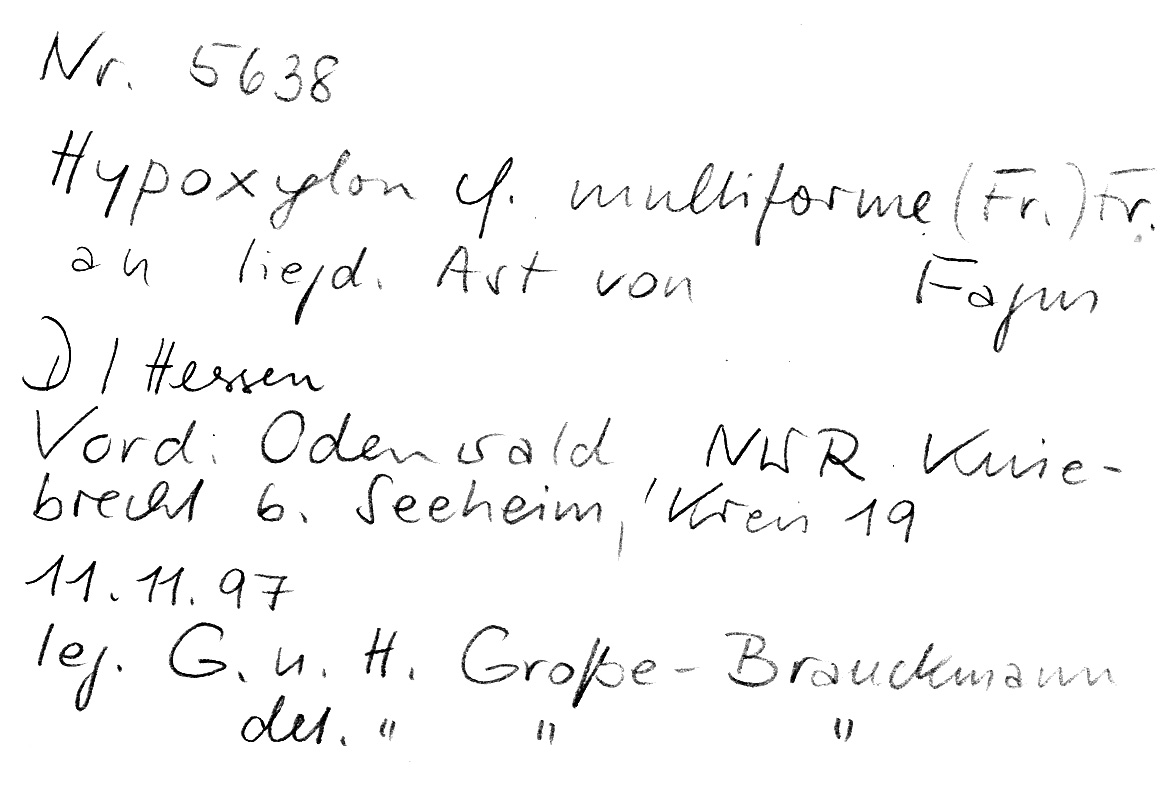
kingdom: Fungi
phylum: Ascomycota
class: Sordariomycetes
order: Xylariales
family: Hypoxylaceae
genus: Jackrogersella
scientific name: Jackrogersella multiformis
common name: Birch woodwart
